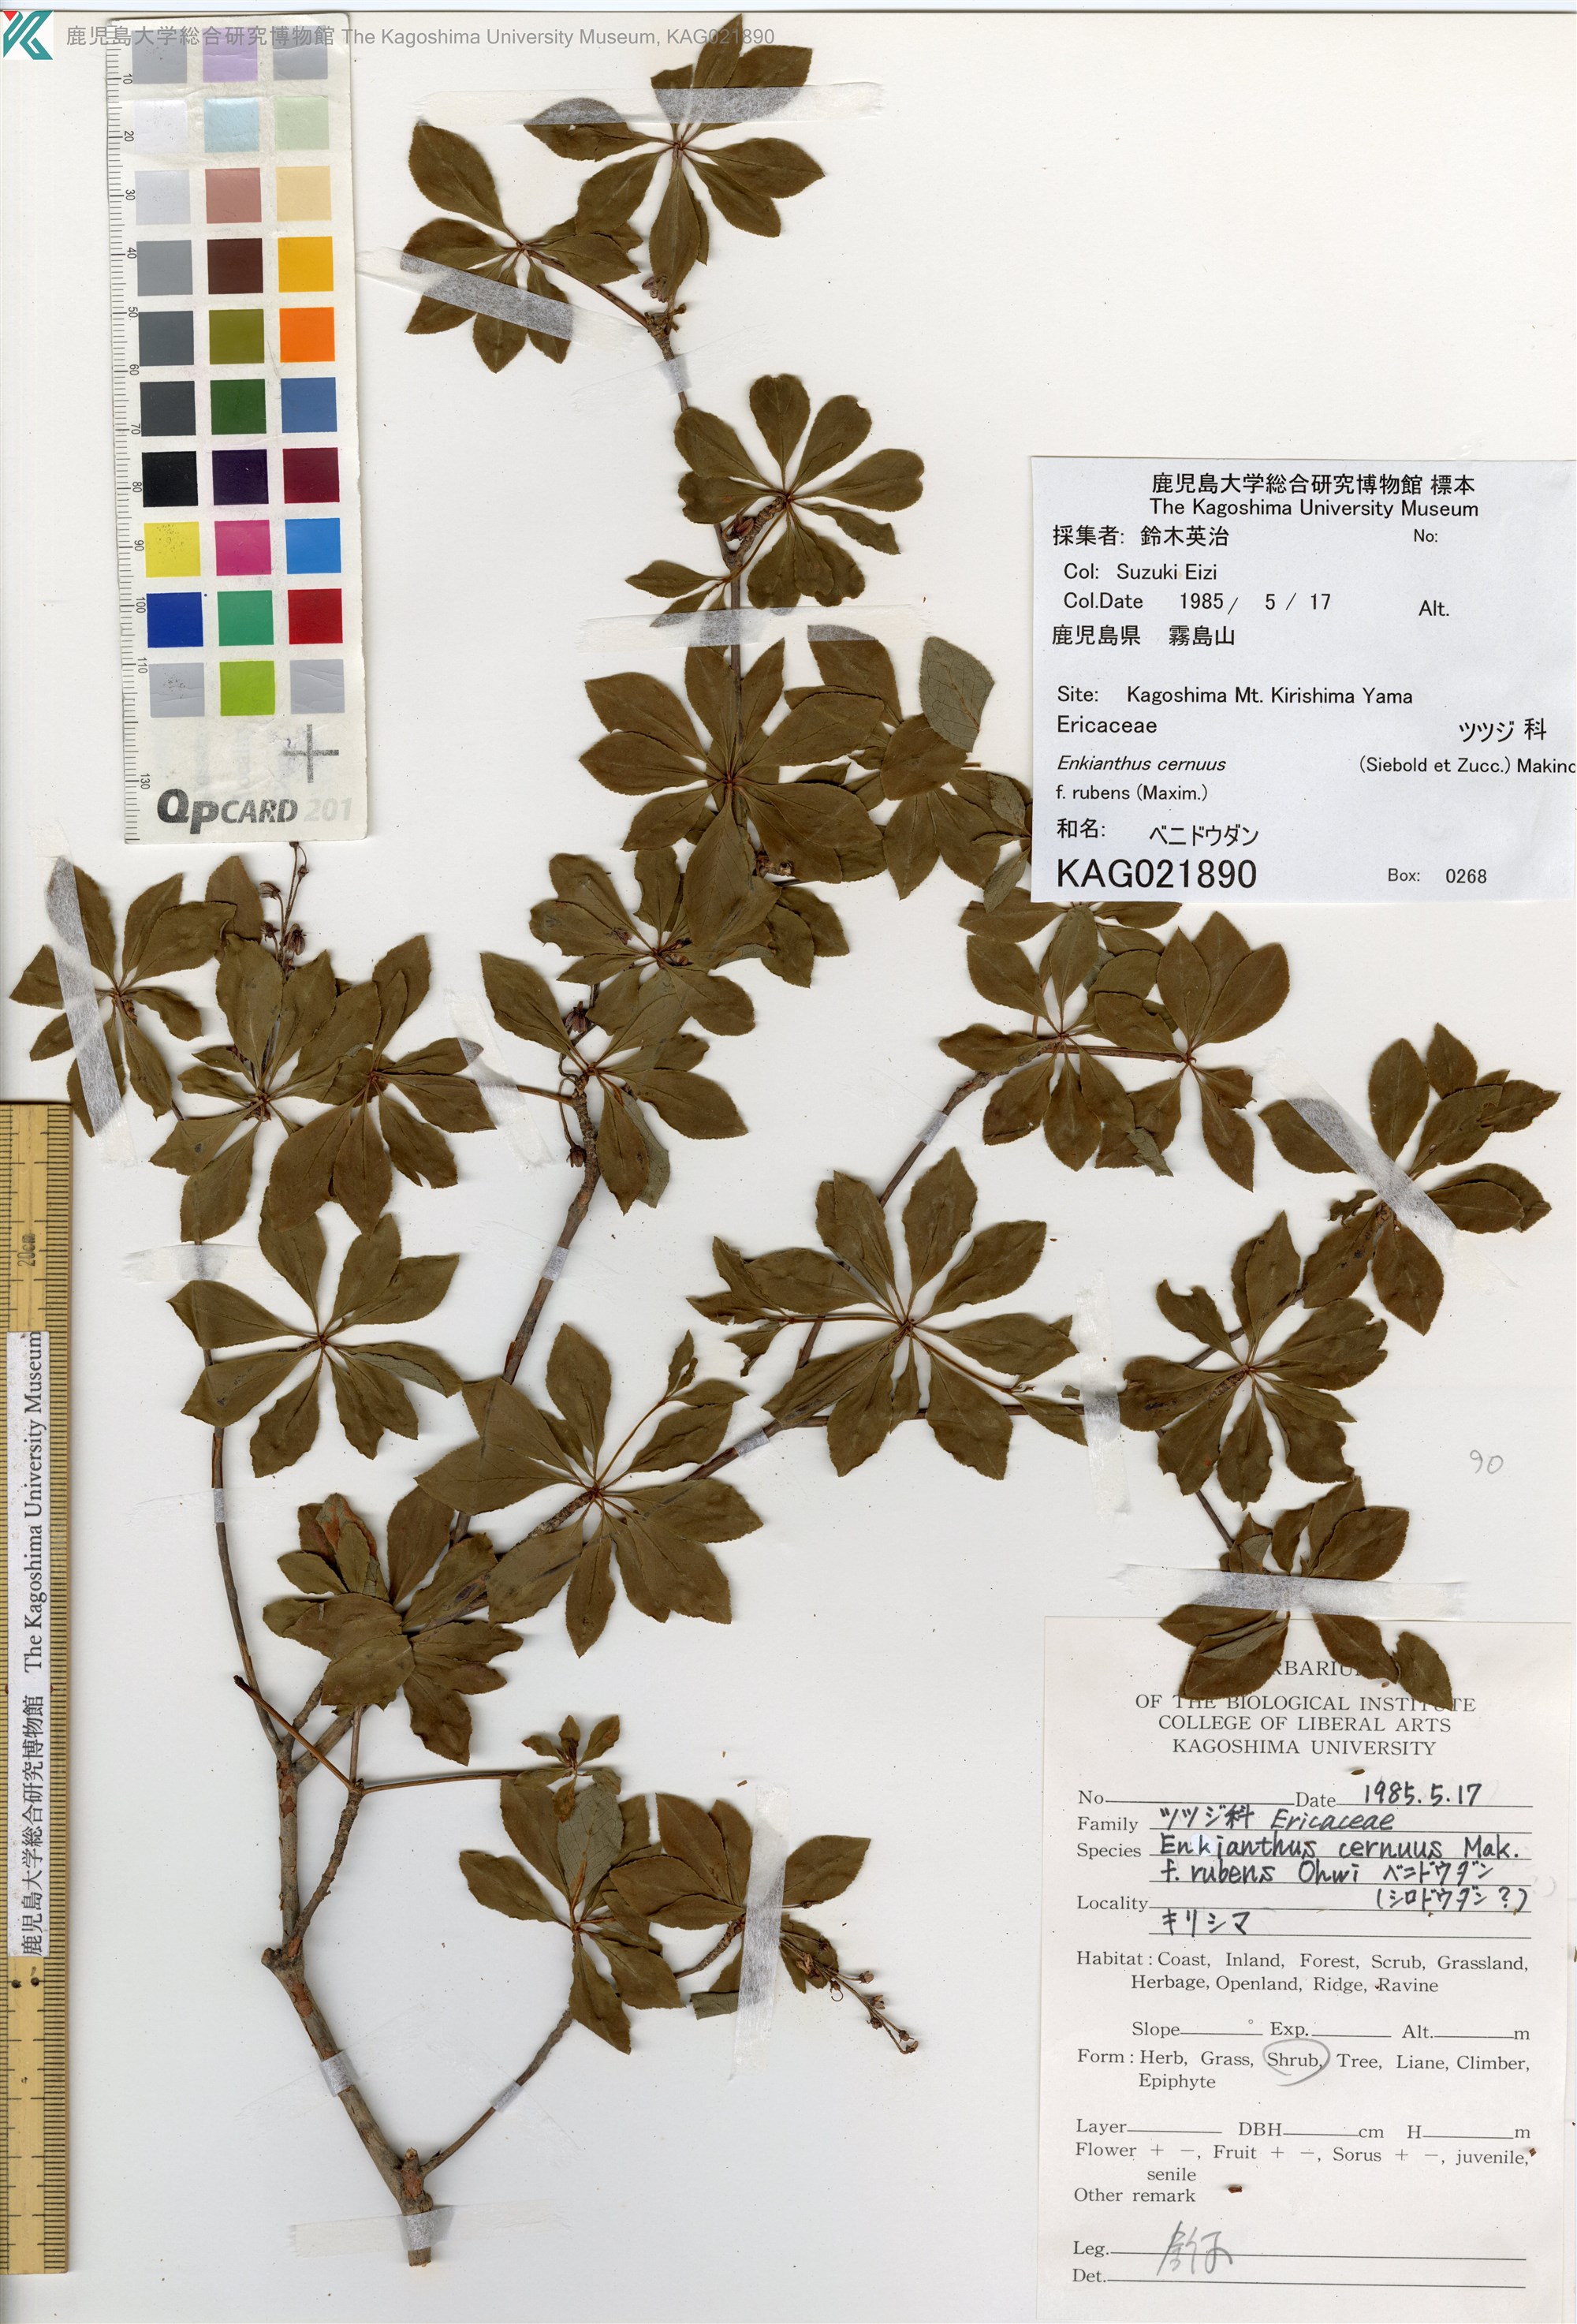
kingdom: Plantae
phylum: Tracheophyta
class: Magnoliopsida
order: Ericales
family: Ericaceae
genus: Enkianthus
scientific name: Enkianthus cernuus
